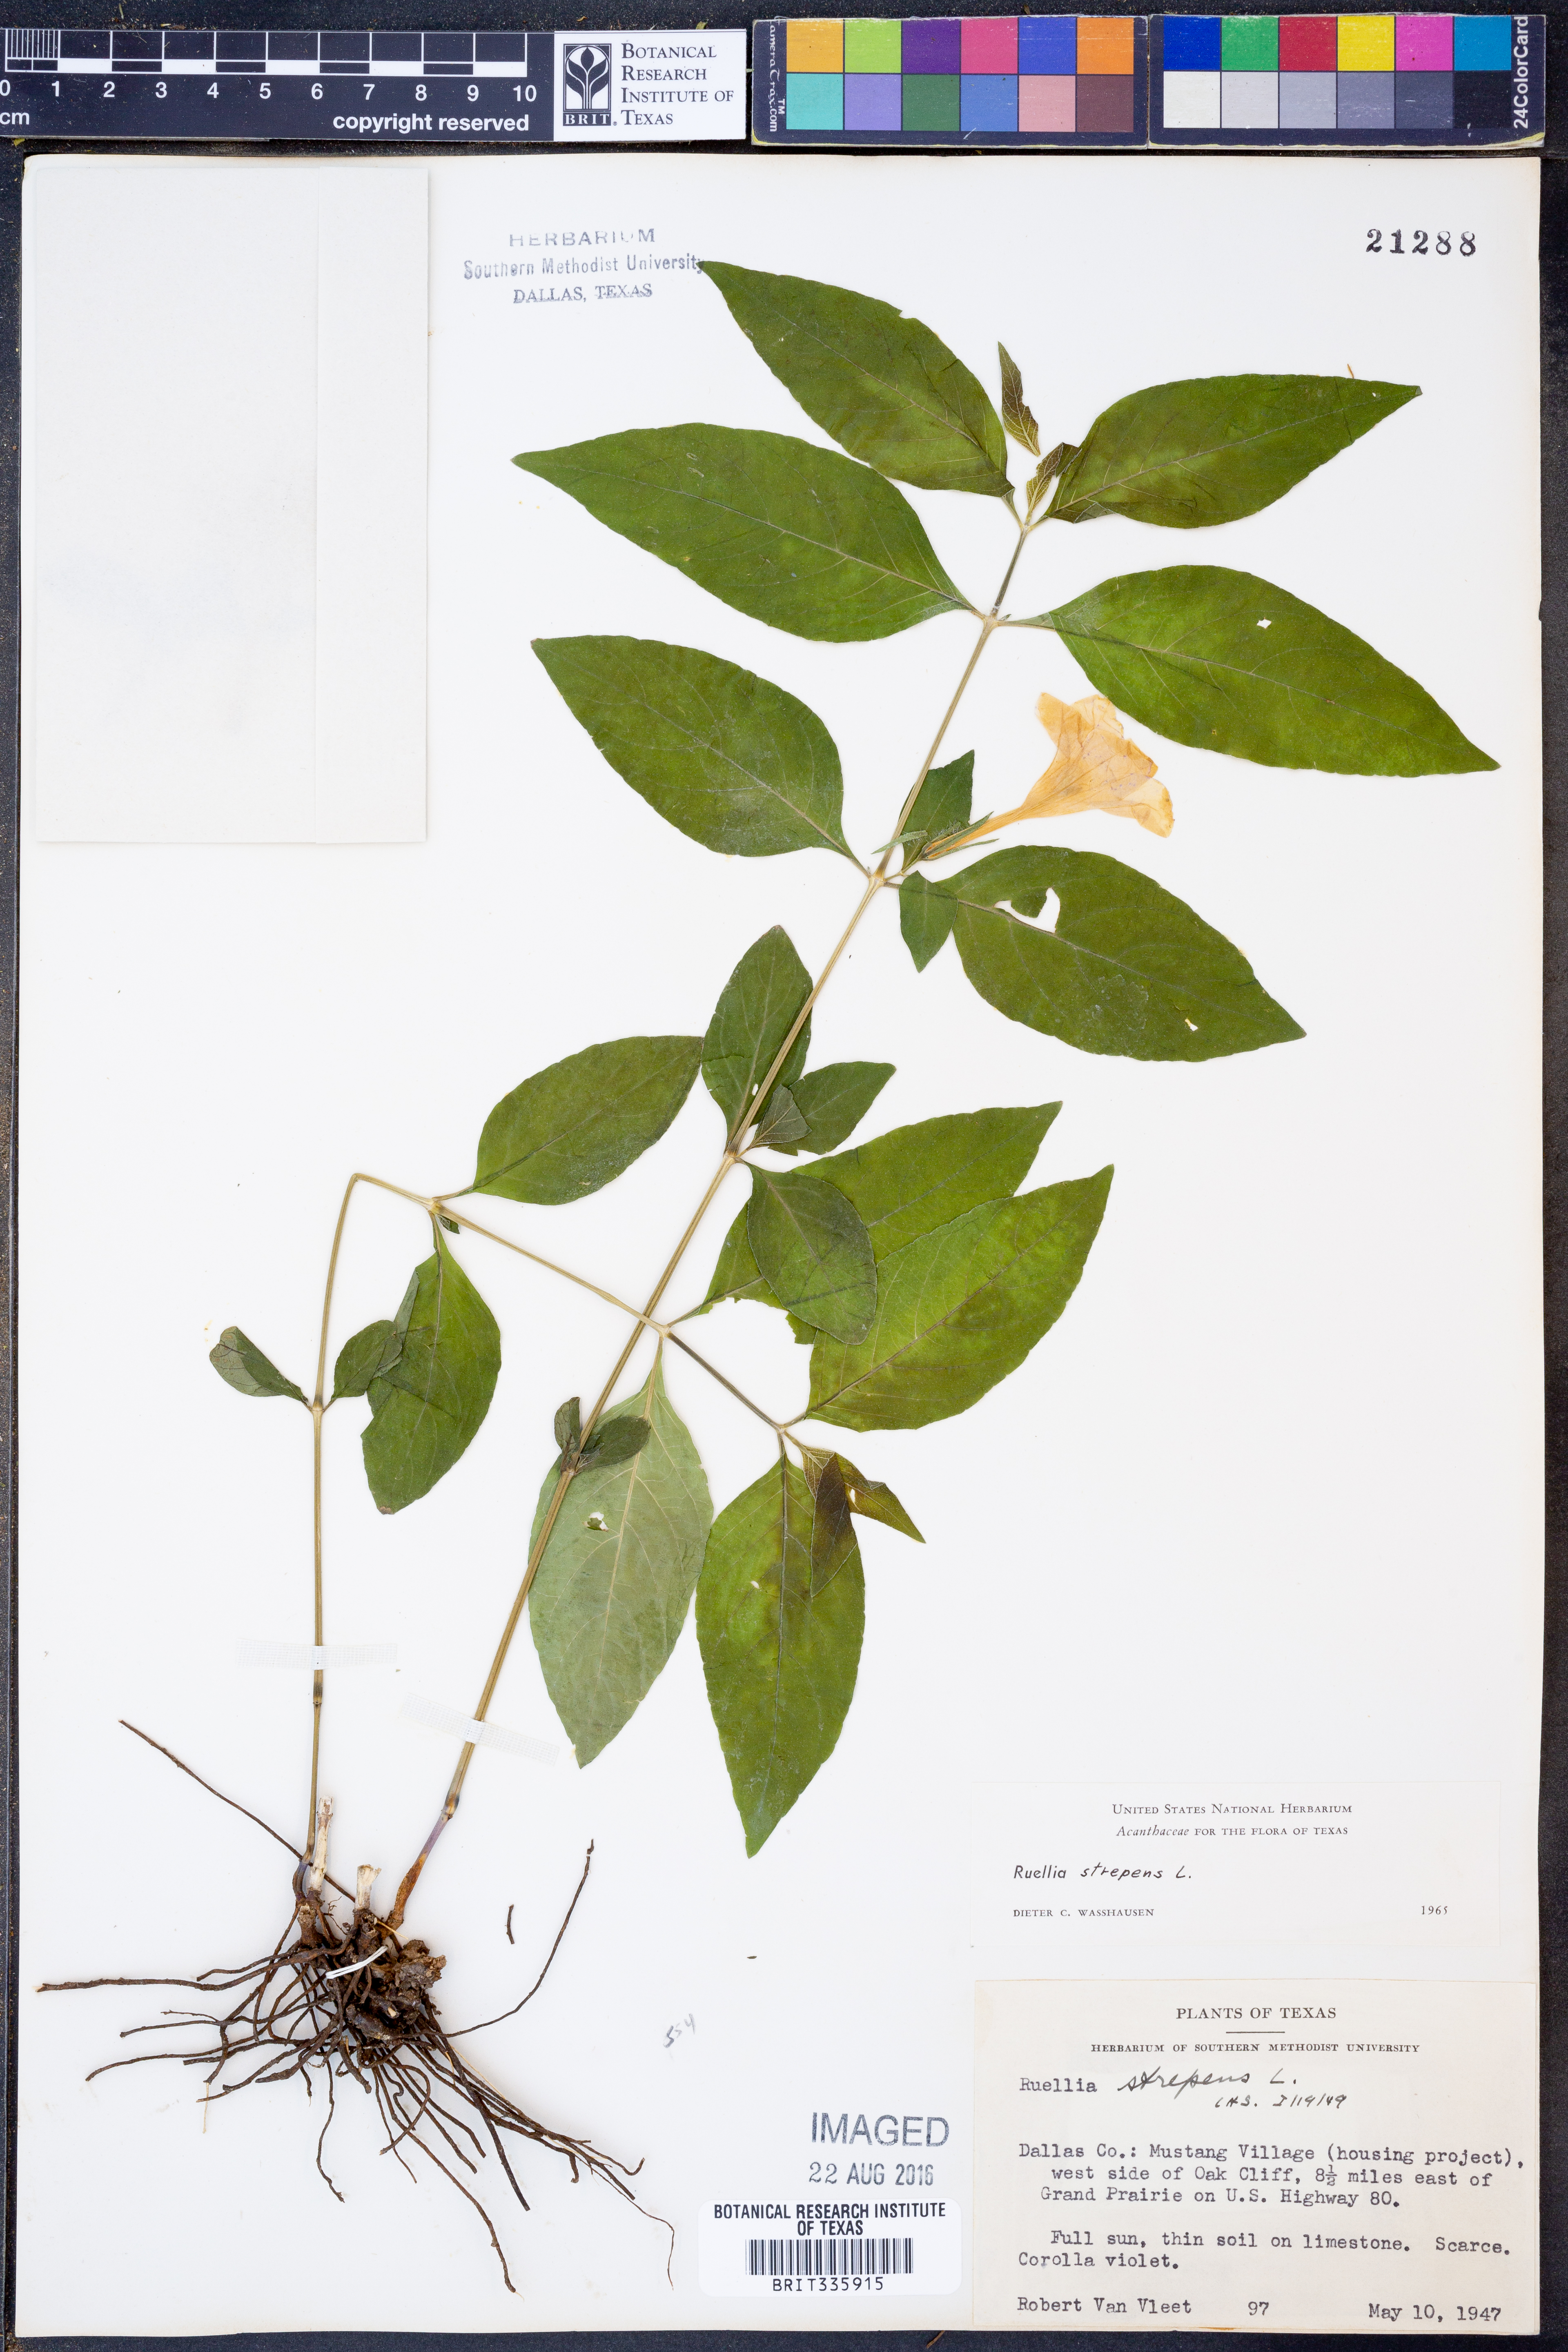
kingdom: Plantae
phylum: Tracheophyta
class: Magnoliopsida
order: Lamiales
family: Acanthaceae
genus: Ruellia
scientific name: Ruellia strepens
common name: Limestone wild petunia
